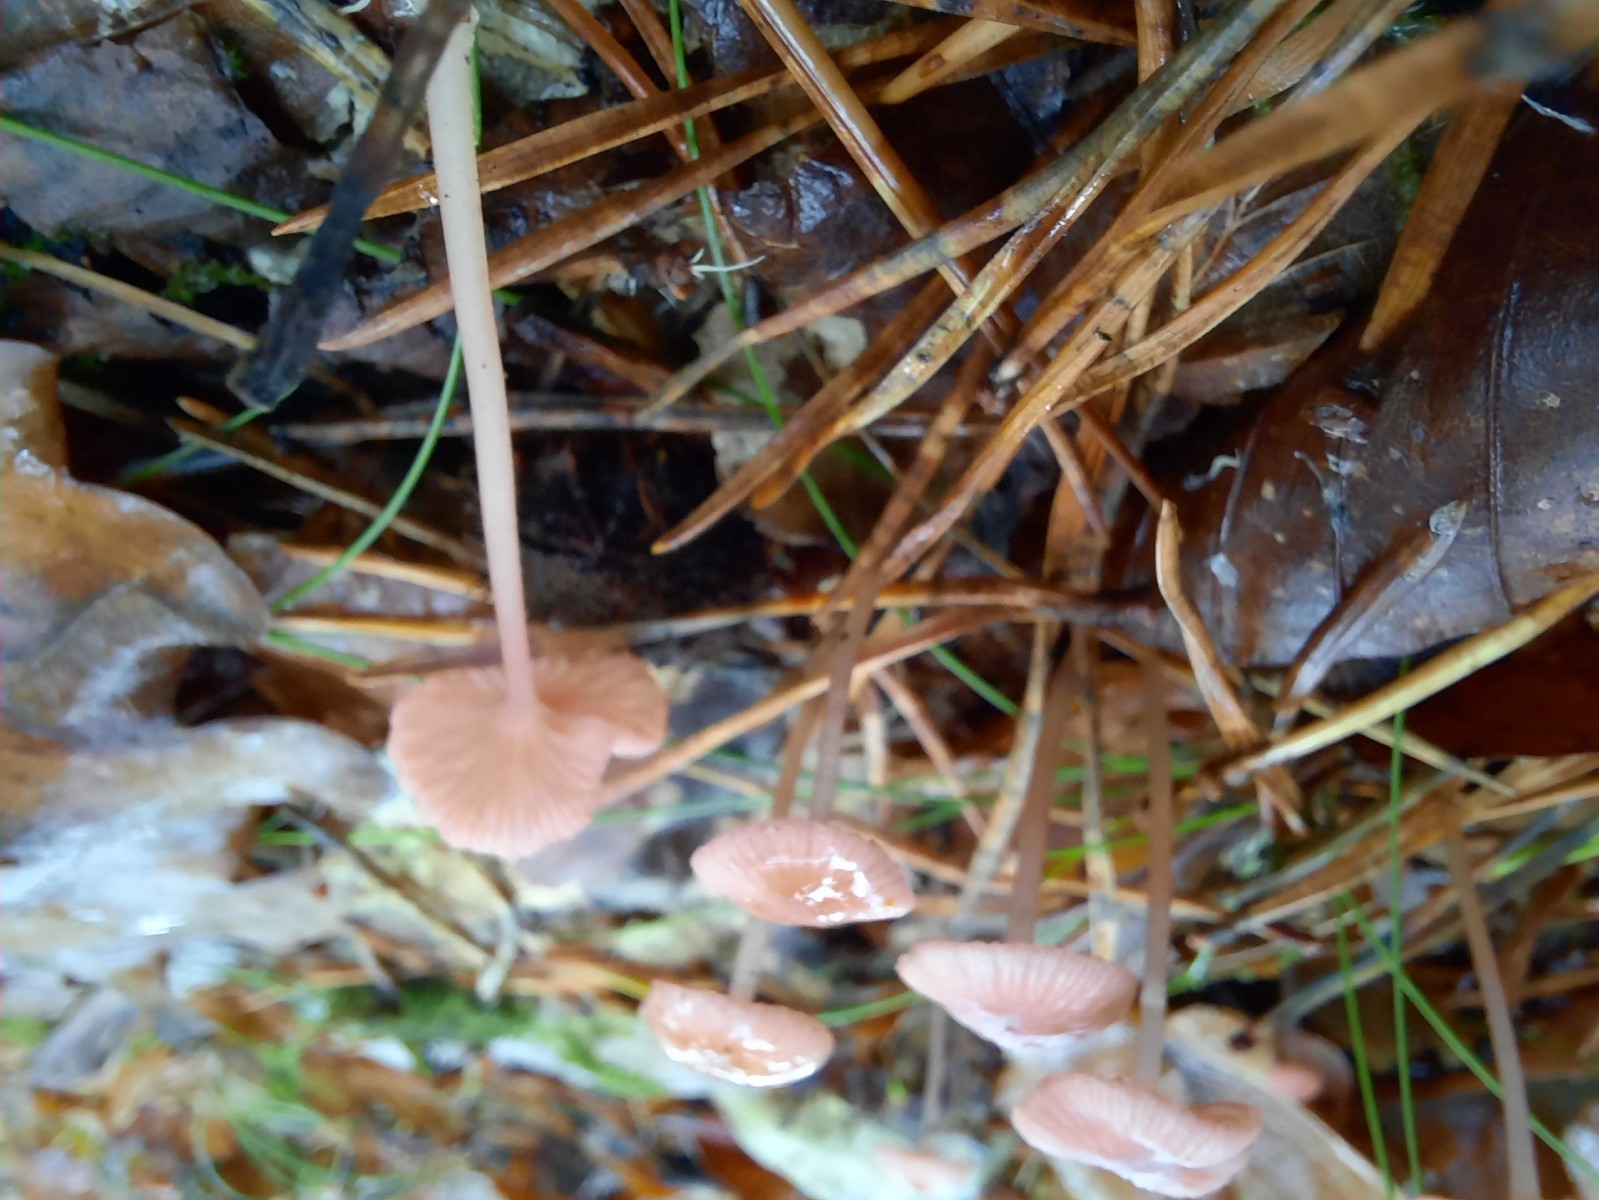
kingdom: Fungi
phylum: Basidiomycota
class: Agaricomycetes
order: Agaricales
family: Mycenaceae
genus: Mycena
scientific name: Mycena rosella
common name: rosenrød huesvamp
